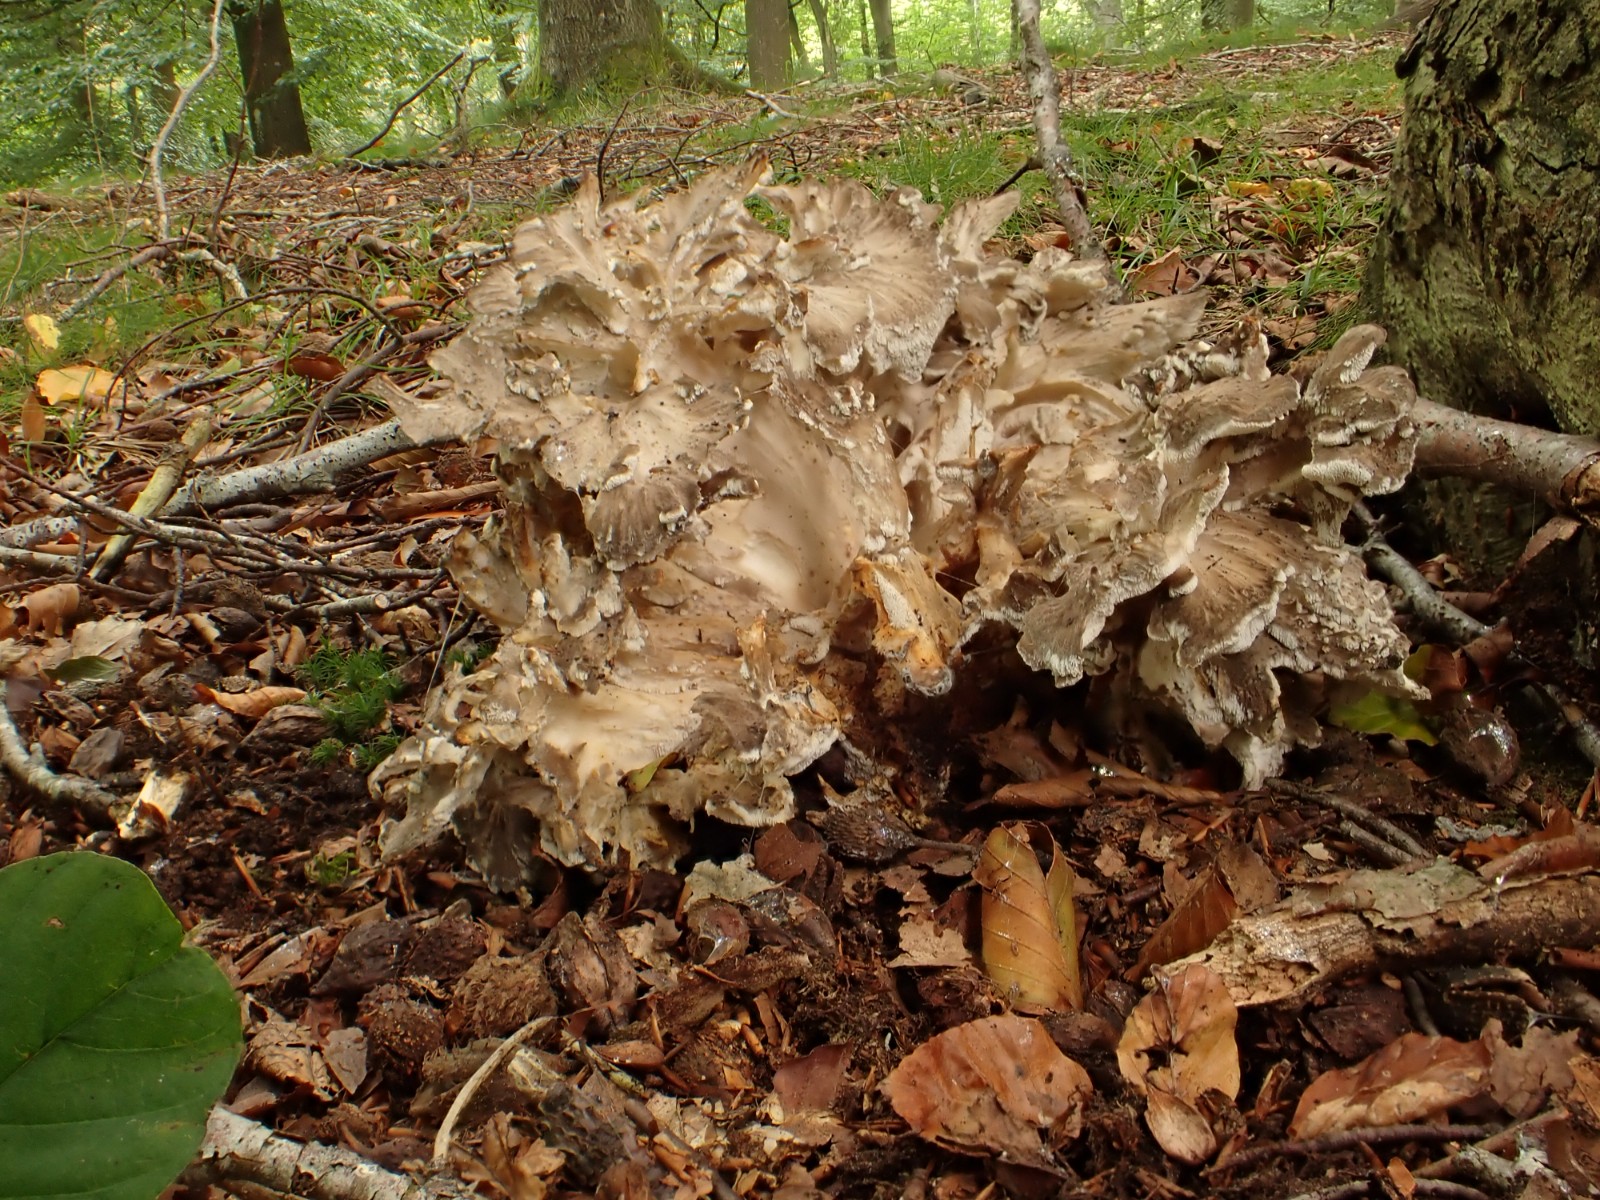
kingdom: Fungi
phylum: Basidiomycota
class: Agaricomycetes
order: Polyporales
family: Grifolaceae
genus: Grifola
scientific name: Grifola frondosa
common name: tueporesvamp
